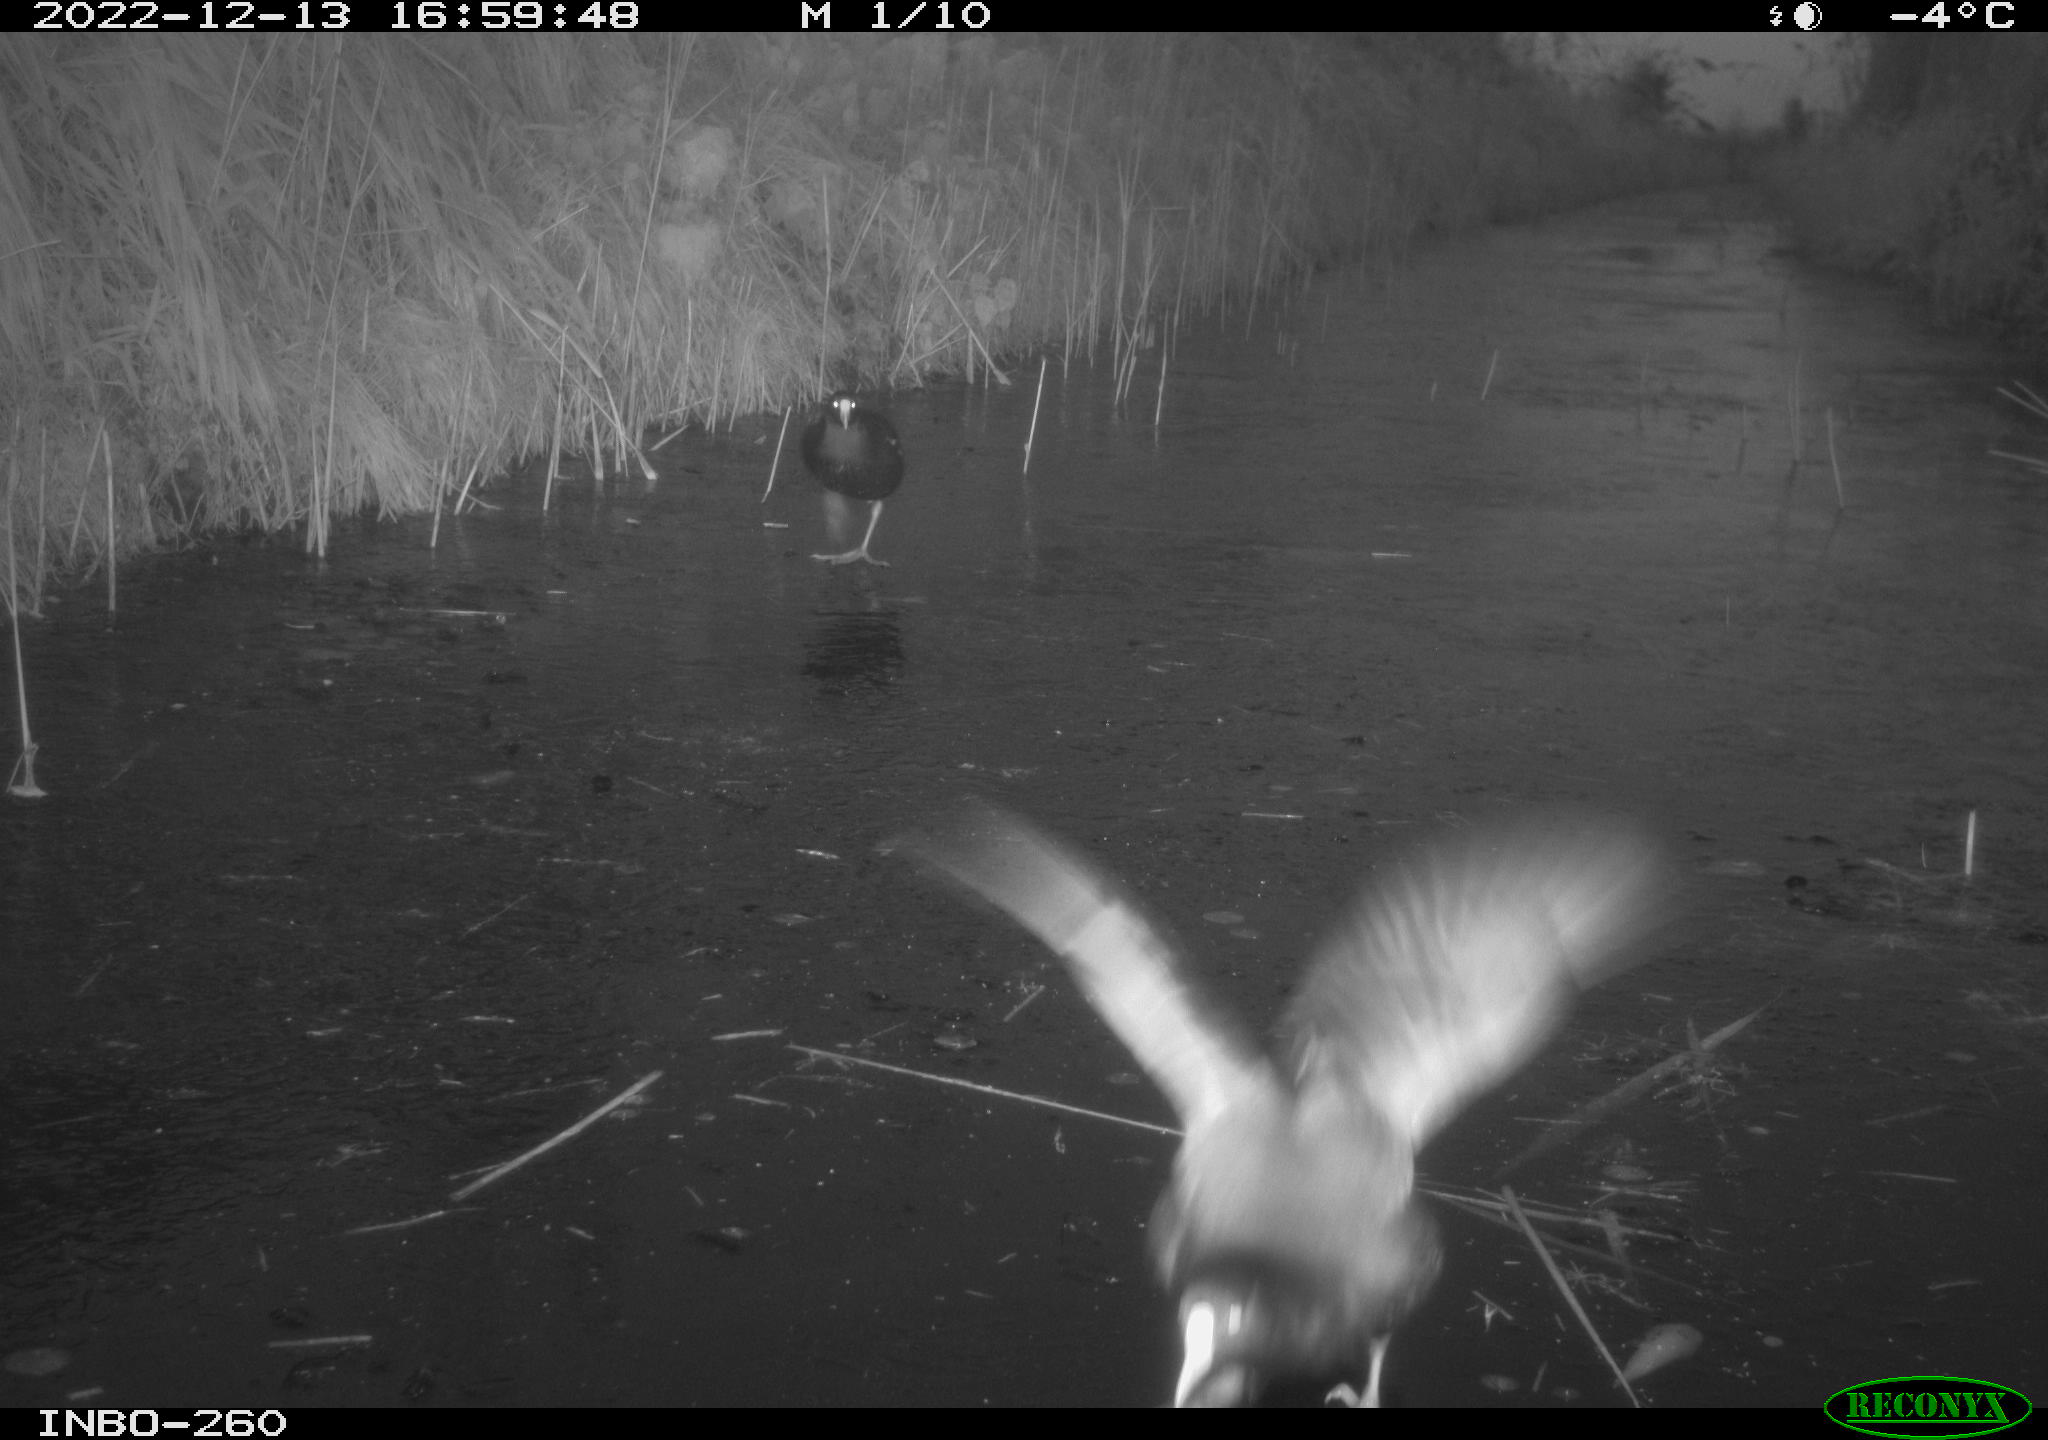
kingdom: Animalia
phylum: Chordata
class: Aves
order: Gruiformes
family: Rallidae
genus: Fulica
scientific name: Fulica atra
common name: Eurasian coot
